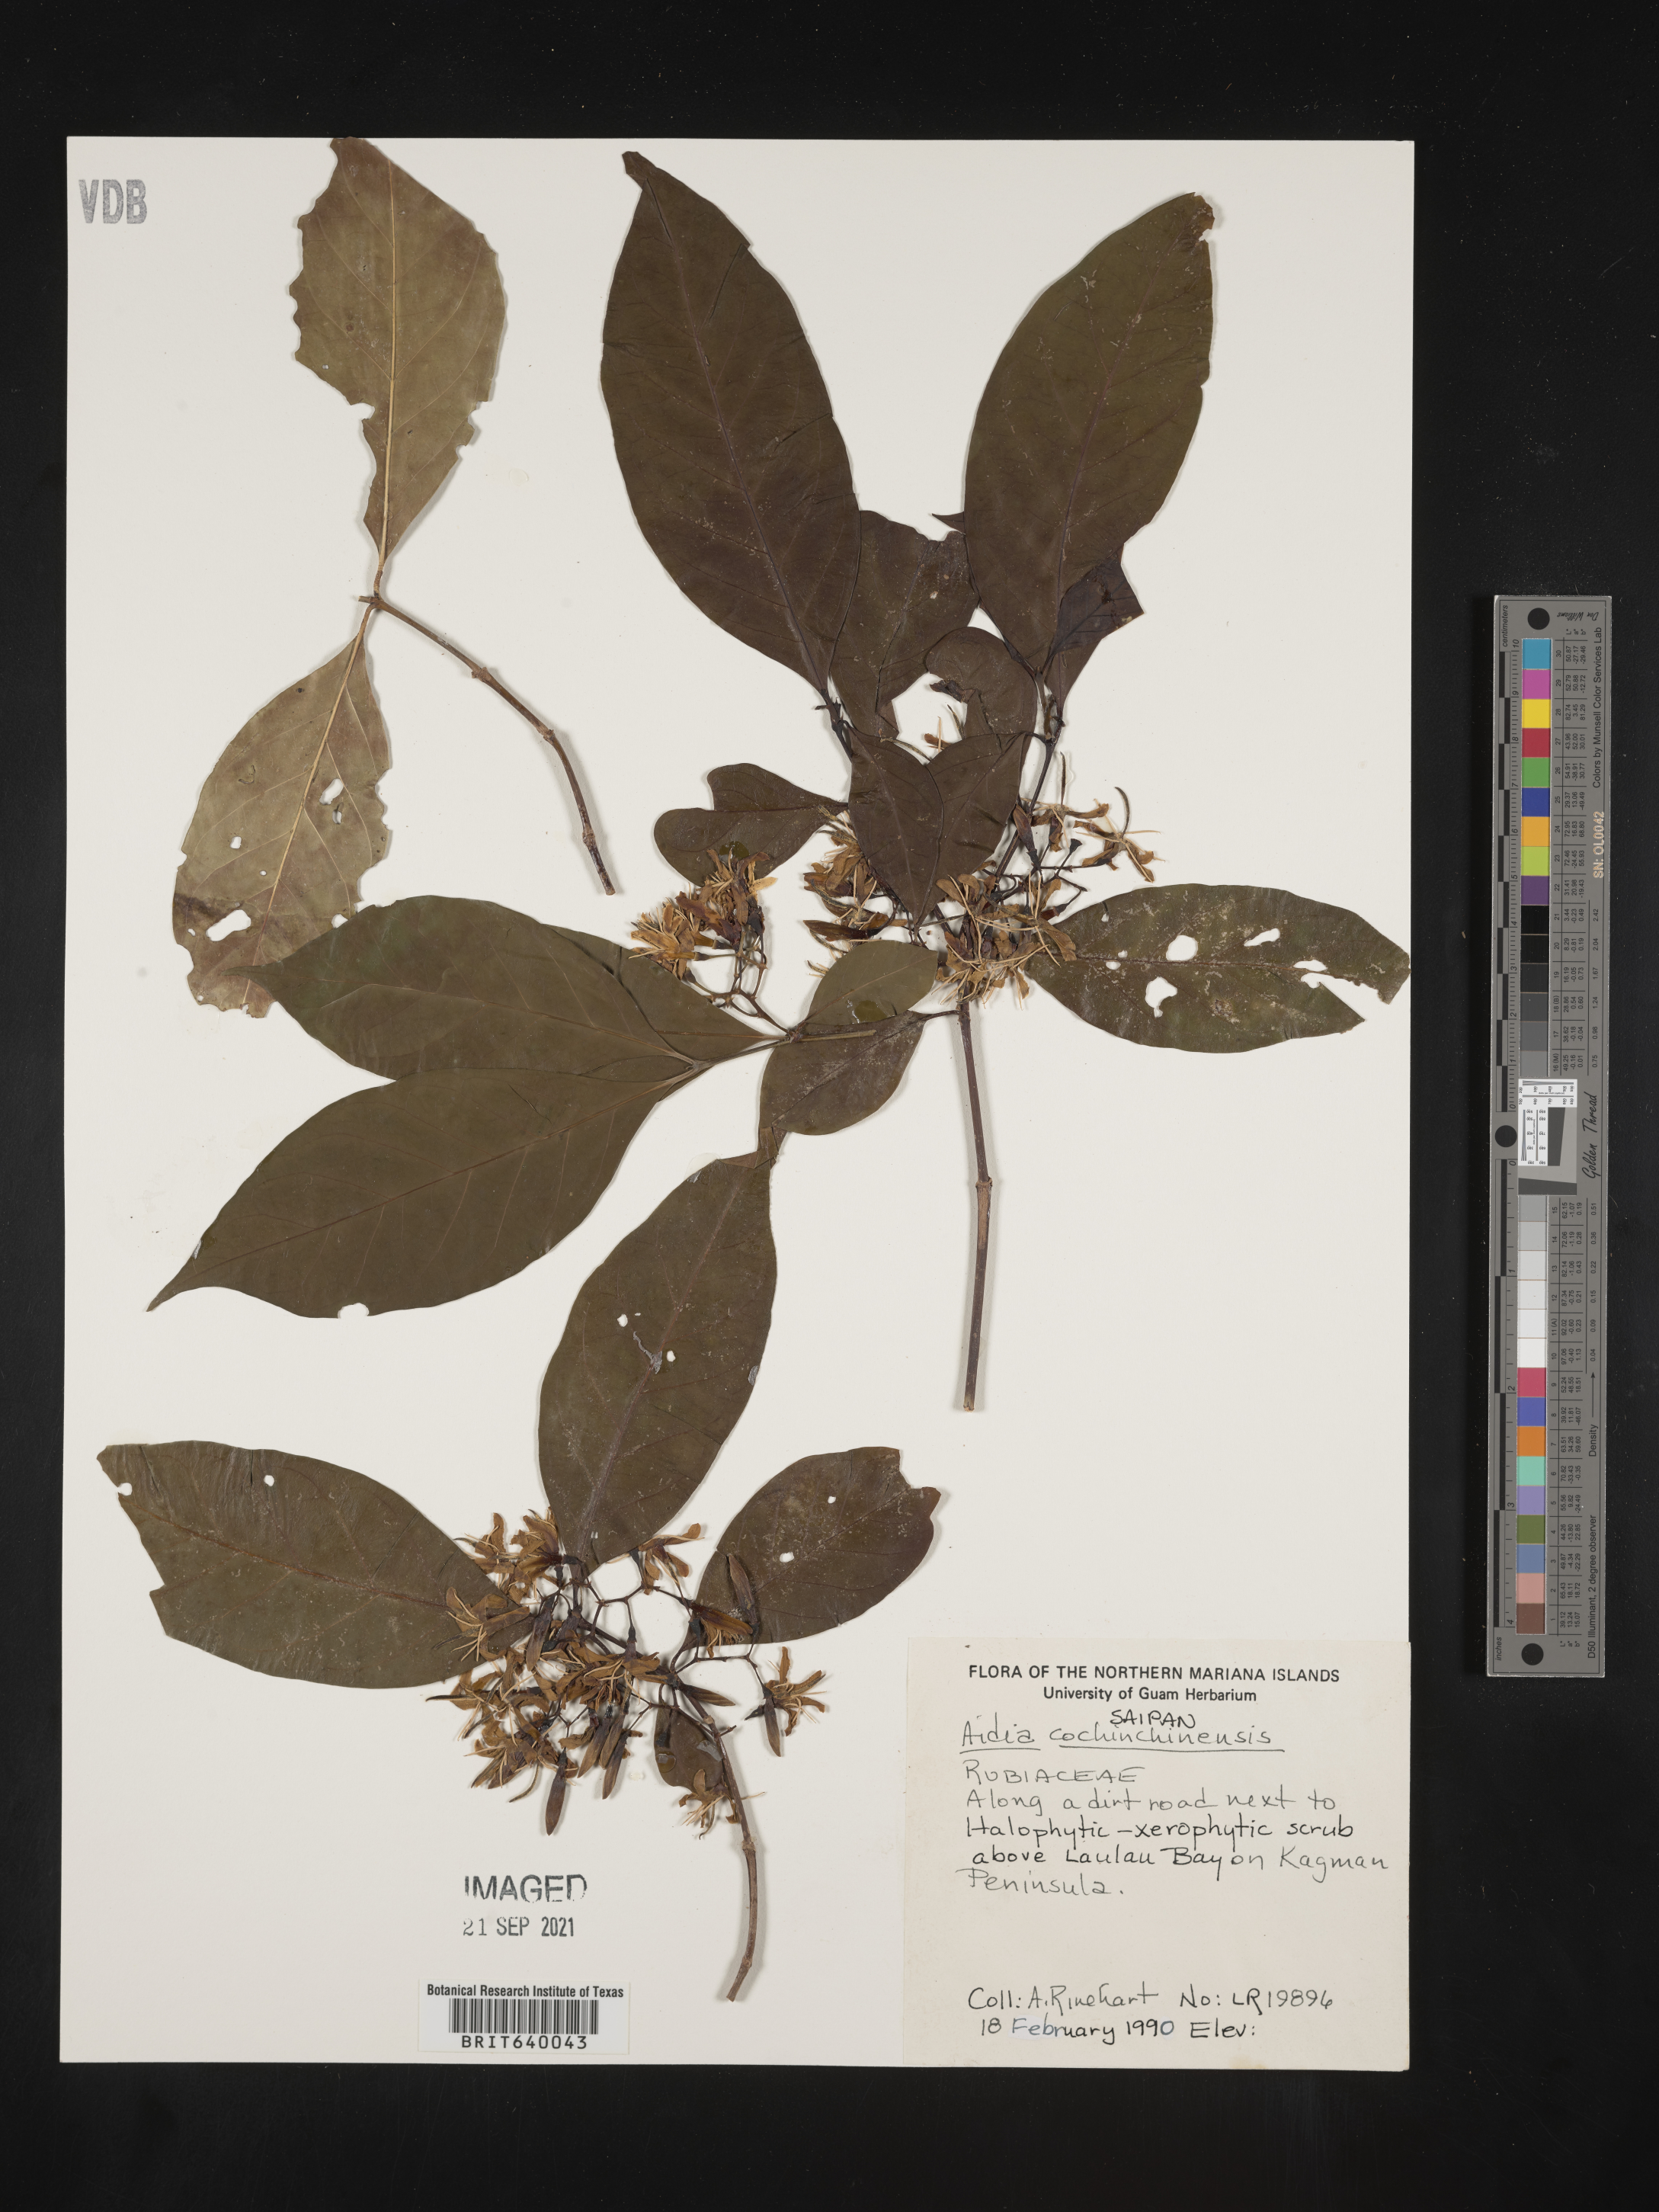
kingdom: Plantae
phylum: Tracheophyta
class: Magnoliopsida
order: Gentianales
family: Rubiaceae
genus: Aidia
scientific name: Aidia cochinchinensis
